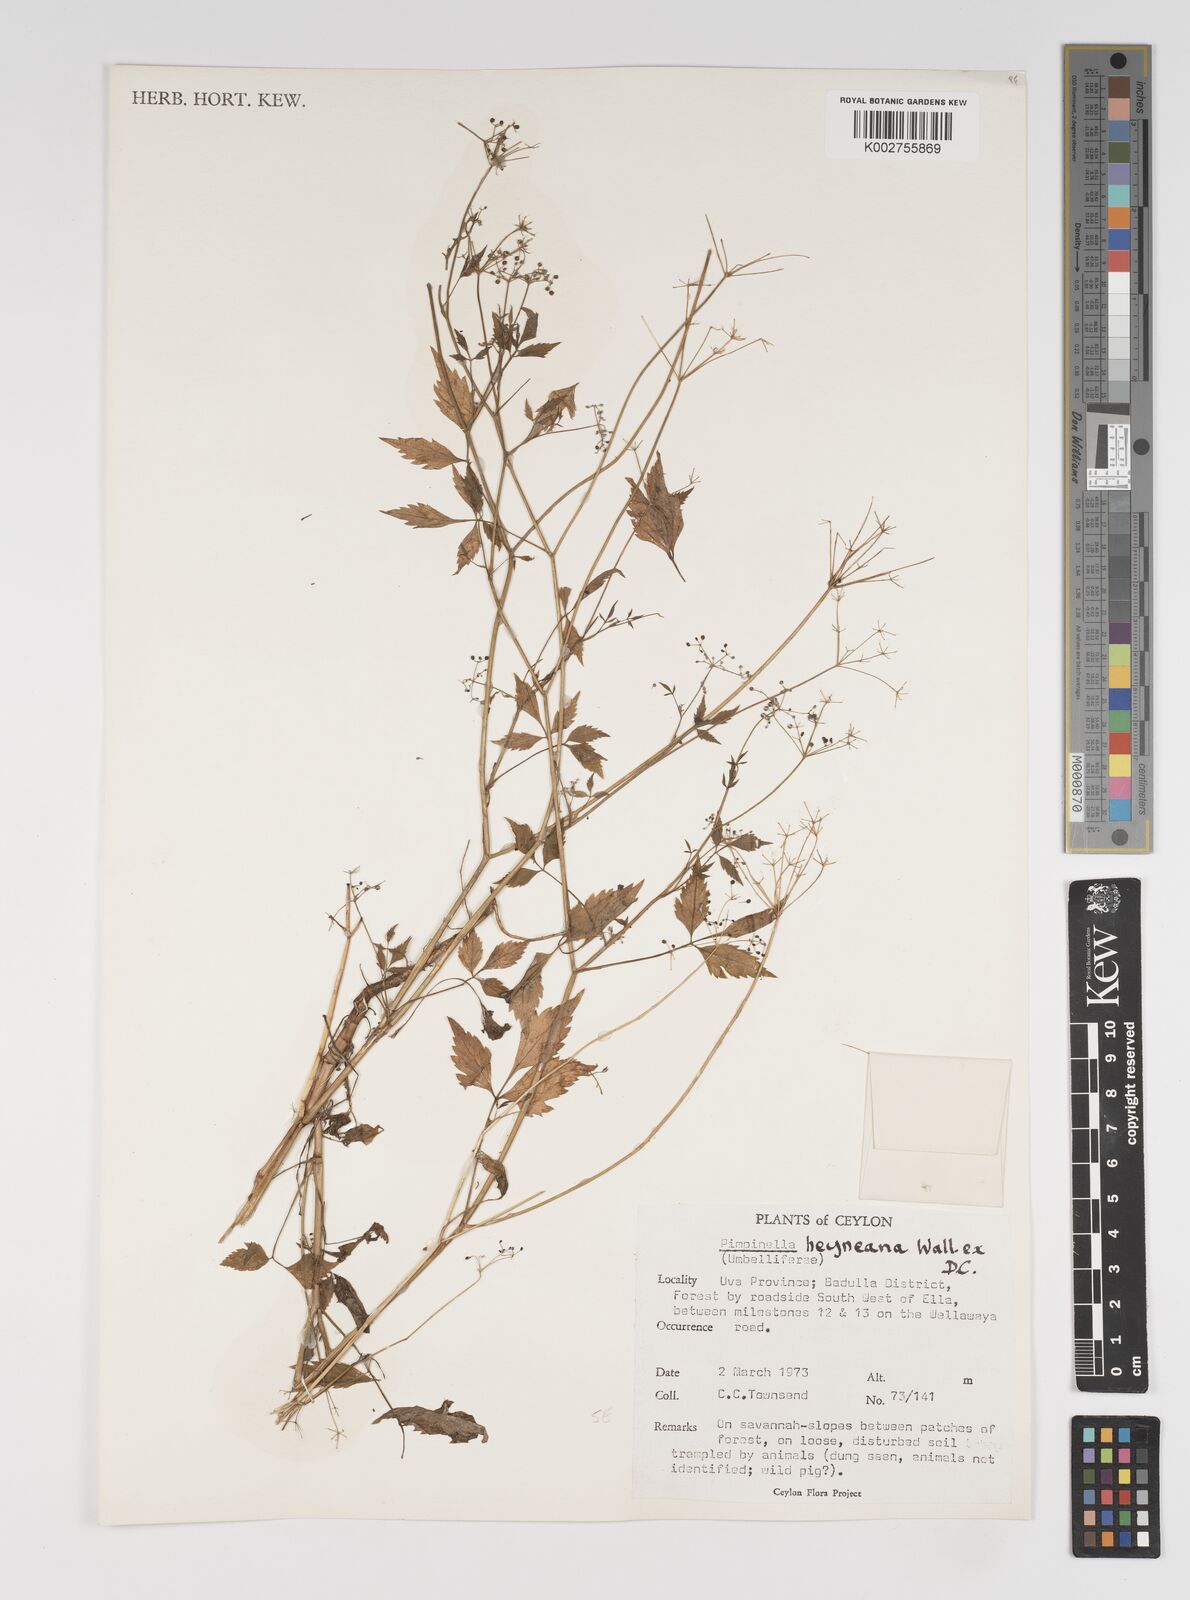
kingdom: Plantae
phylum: Tracheophyta
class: Magnoliopsida
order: Apiales
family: Apiaceae
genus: Pimpinella
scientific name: Pimpinella heyneana
